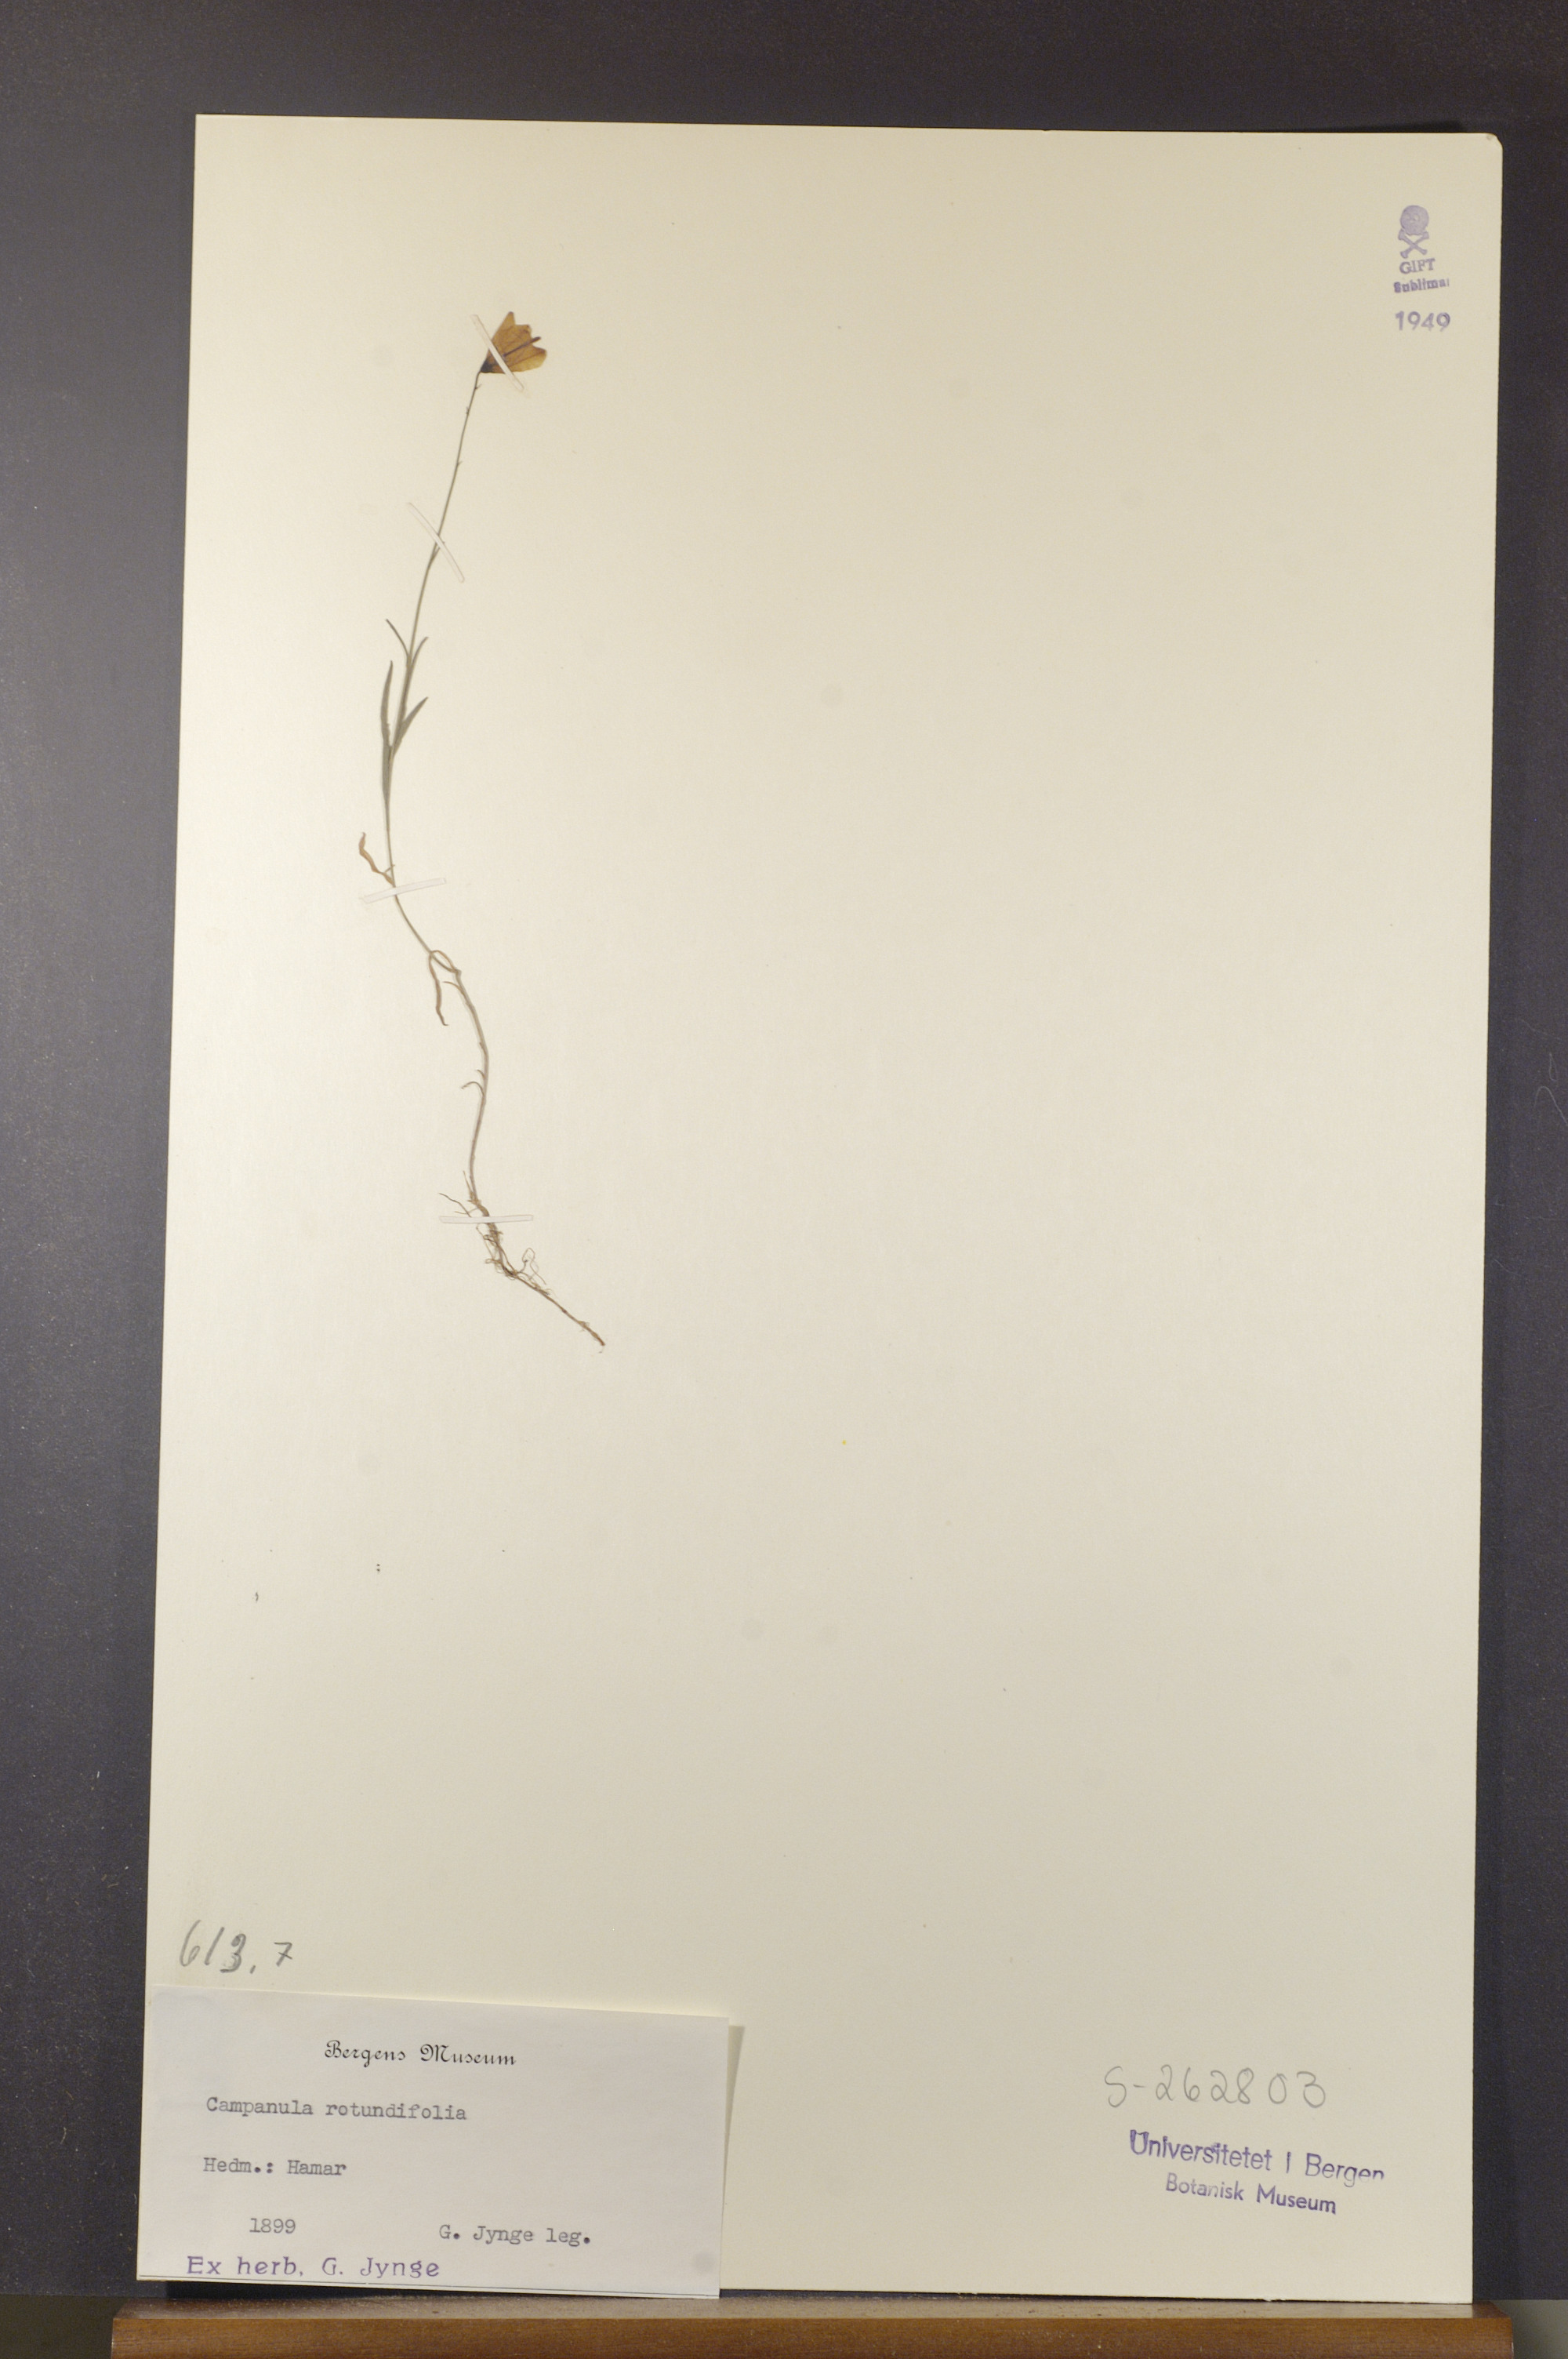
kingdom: Plantae
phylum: Tracheophyta
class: Magnoliopsida
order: Asterales
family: Campanulaceae
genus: Campanula
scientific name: Campanula rotundifolia
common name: Harebell
